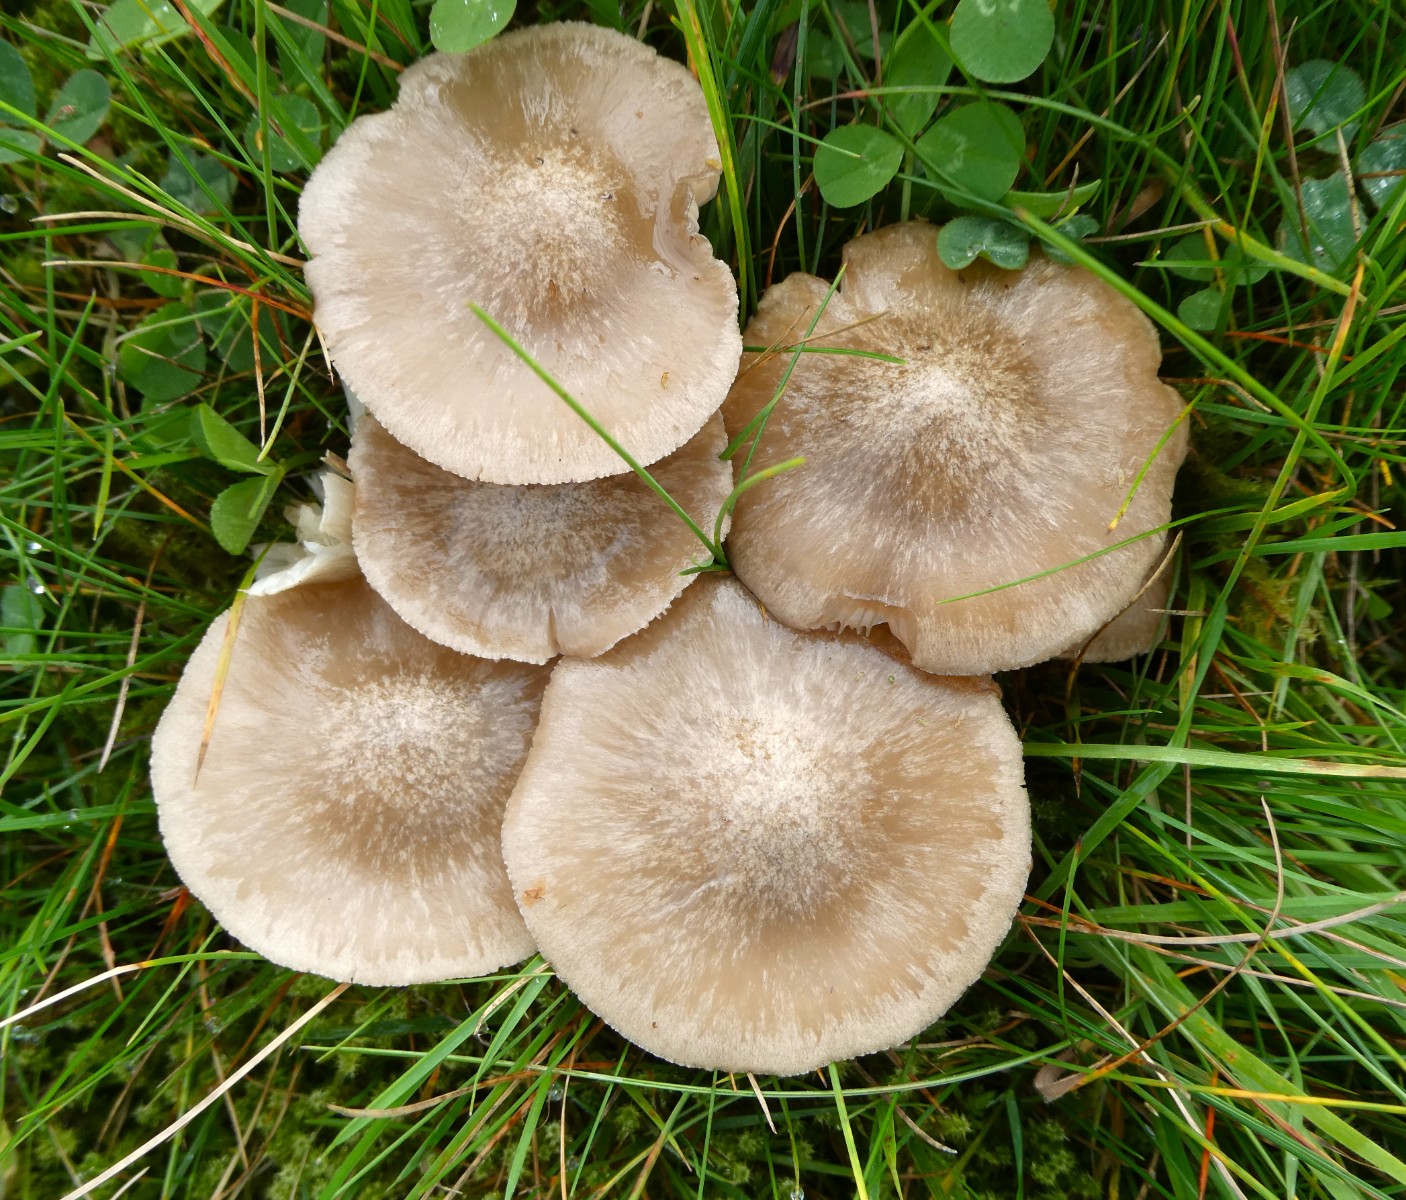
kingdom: Fungi
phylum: Basidiomycota
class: Agaricomycetes
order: Agaricales
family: Entolomataceae
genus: Entoloma
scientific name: Entoloma prunuloides
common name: mel-rødblad
